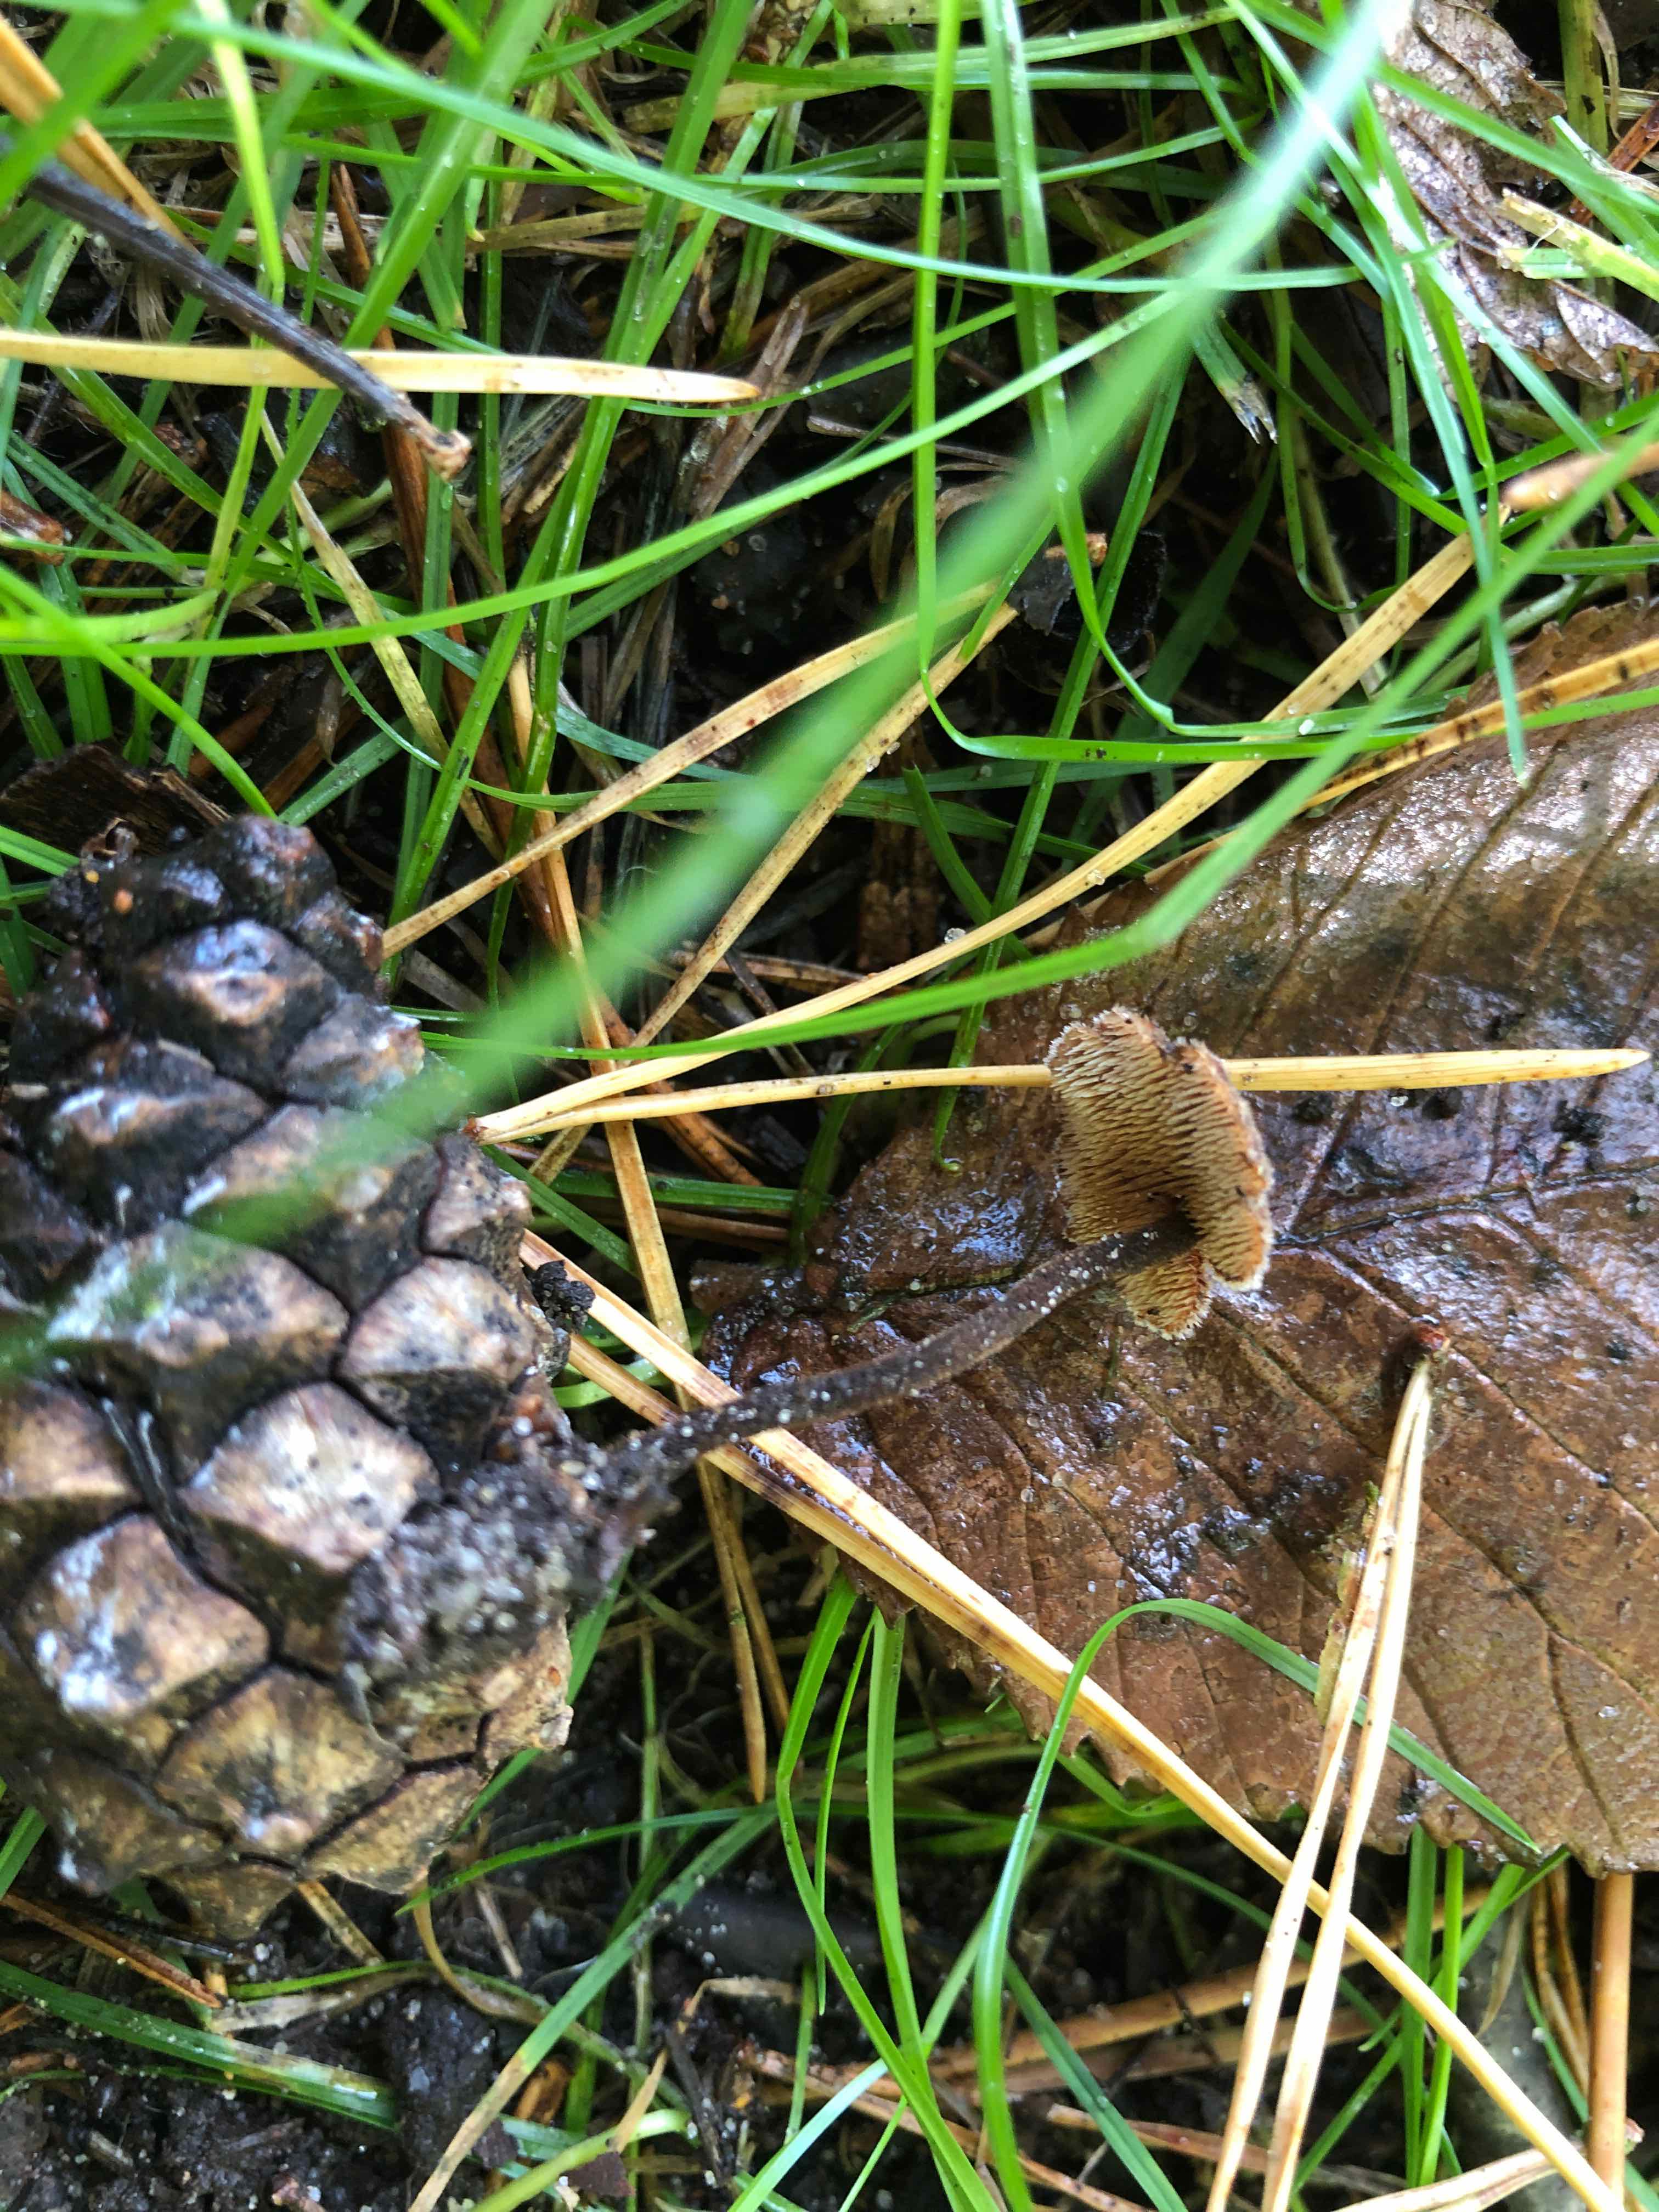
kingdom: Fungi
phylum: Basidiomycota
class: Agaricomycetes
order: Russulales
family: Auriscalpiaceae
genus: Auriscalpium
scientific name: Auriscalpium vulgare
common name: koglepigsvamp
